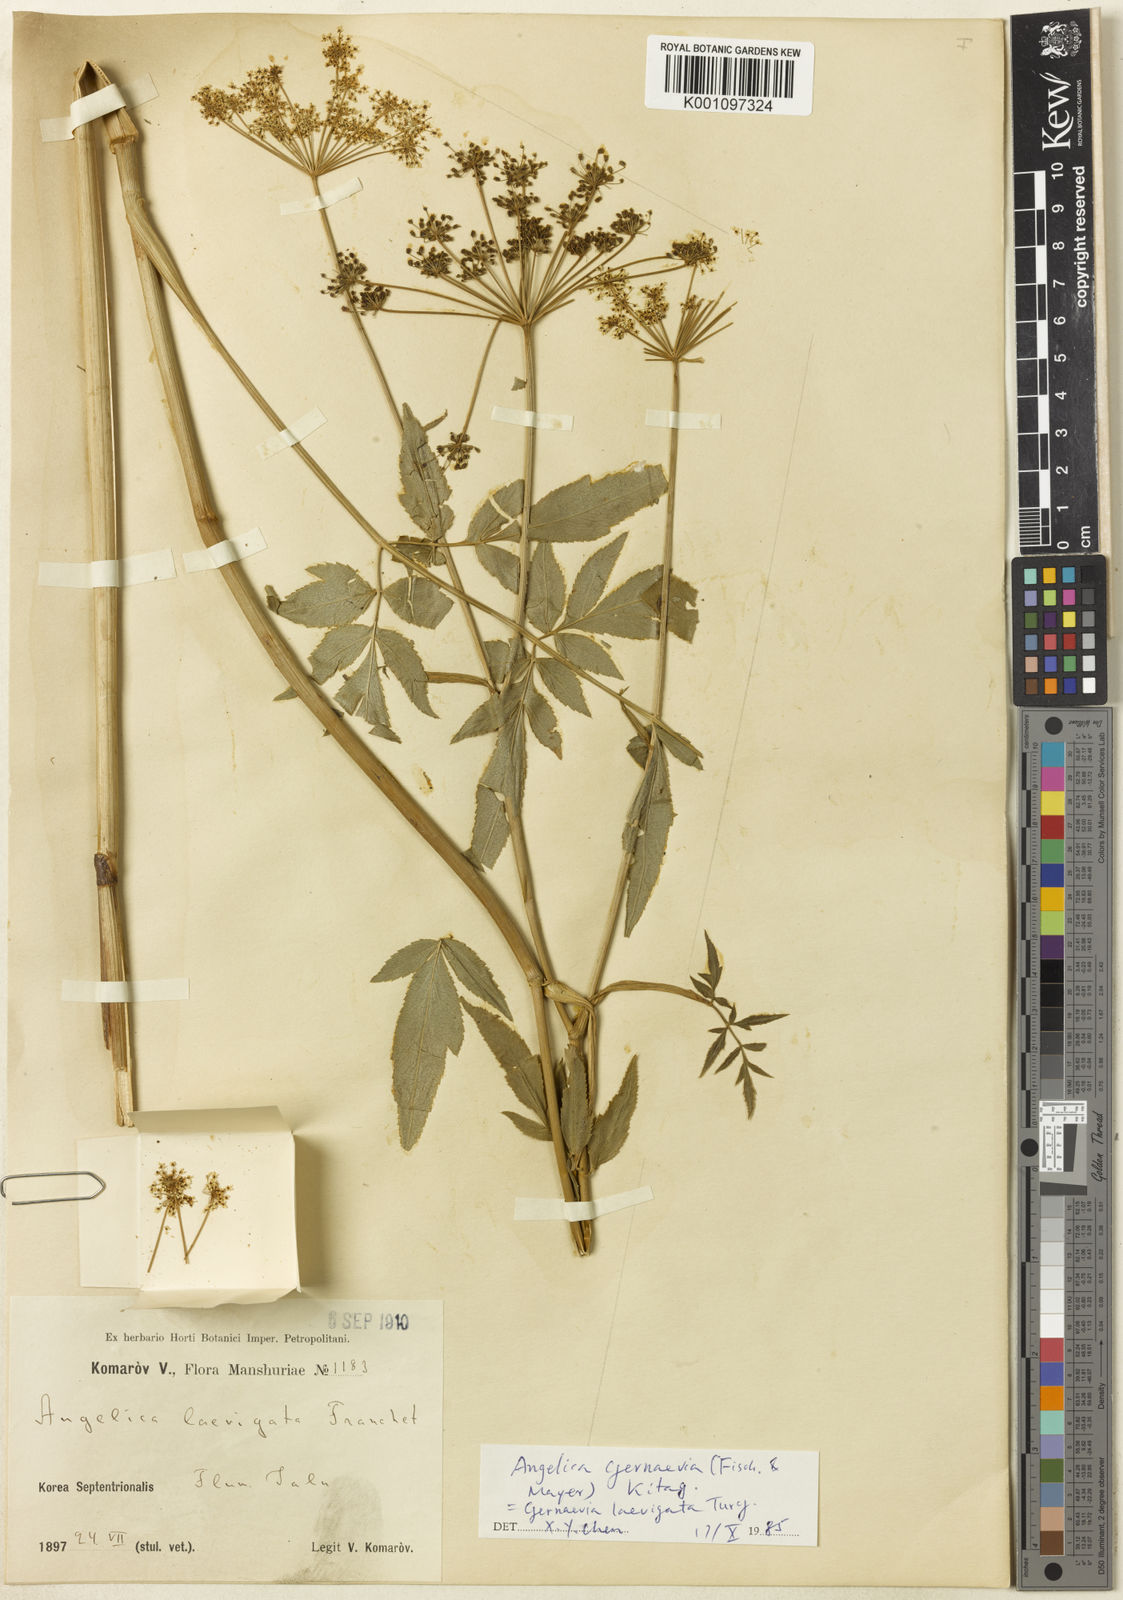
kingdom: Plantae
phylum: Tracheophyta
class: Magnoliopsida
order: Apiales
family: Apiaceae
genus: Macroselinum
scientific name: Macroselinum latifolium
